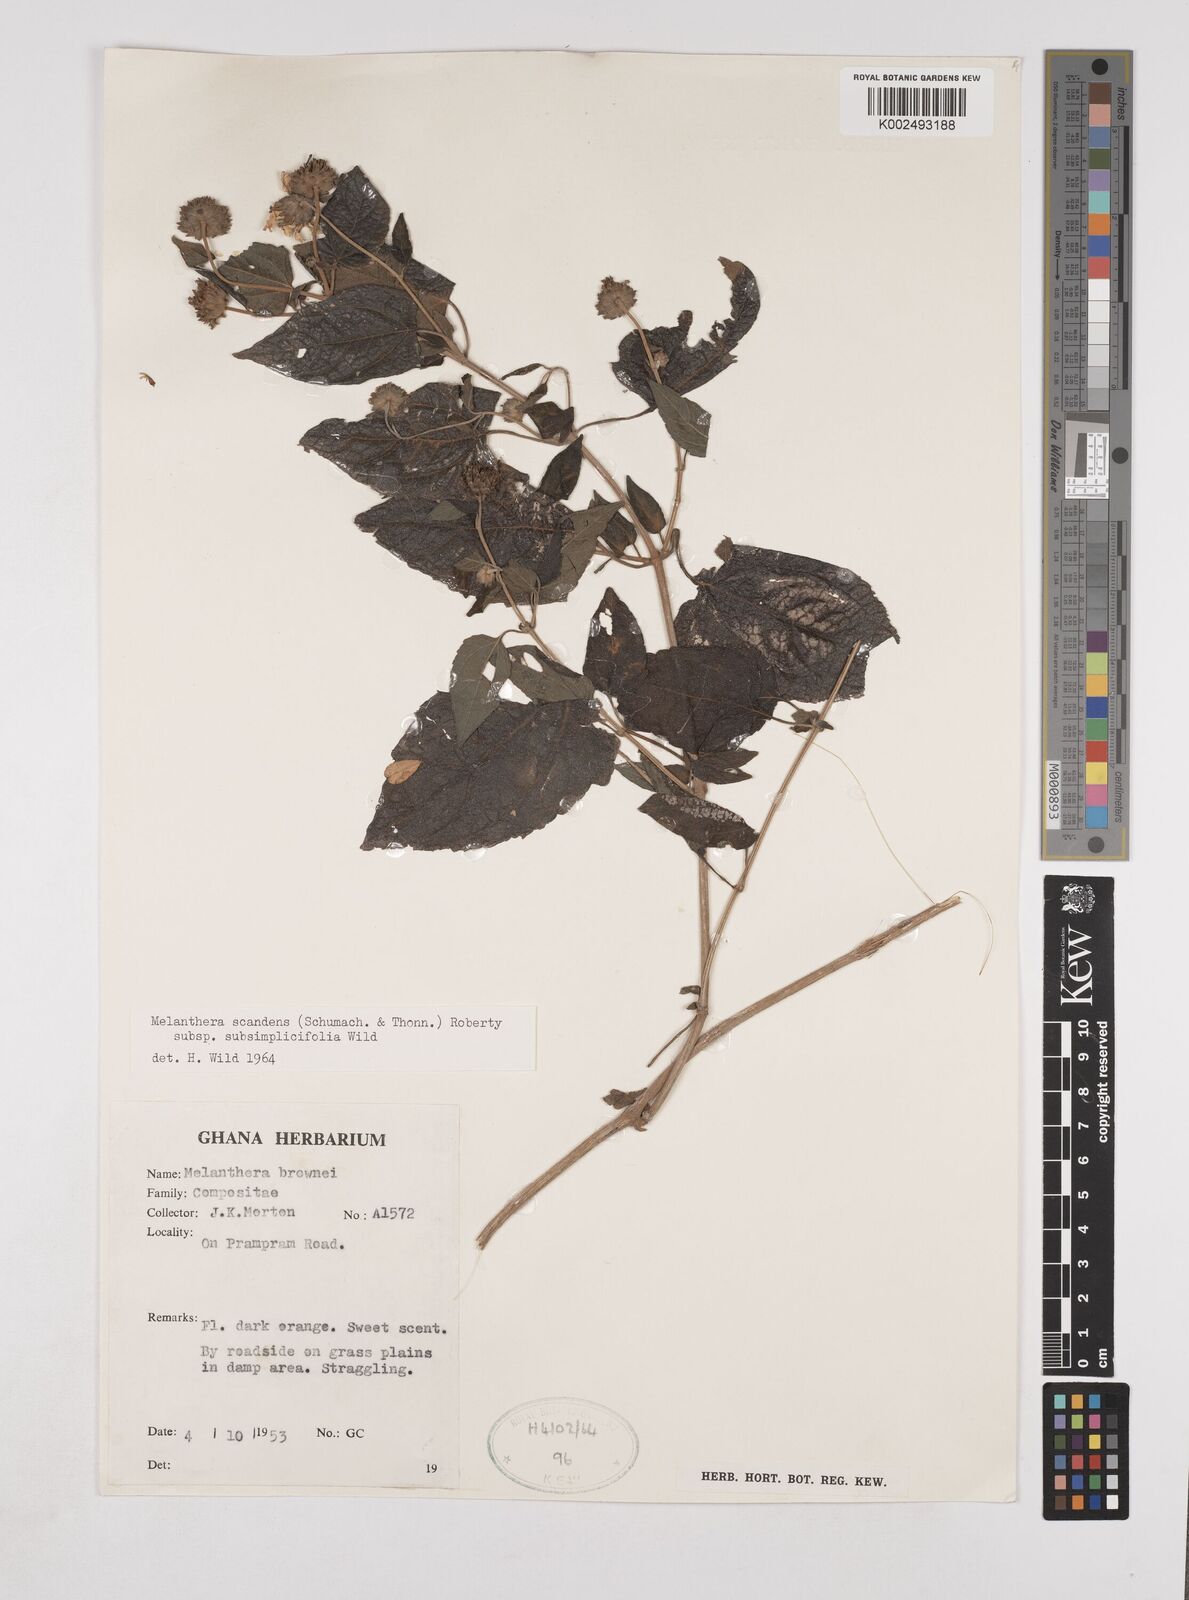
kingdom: Plantae
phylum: Tracheophyta
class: Magnoliopsida
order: Asterales
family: Asteraceae
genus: Lipotriche
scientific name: Lipotriche scandens
